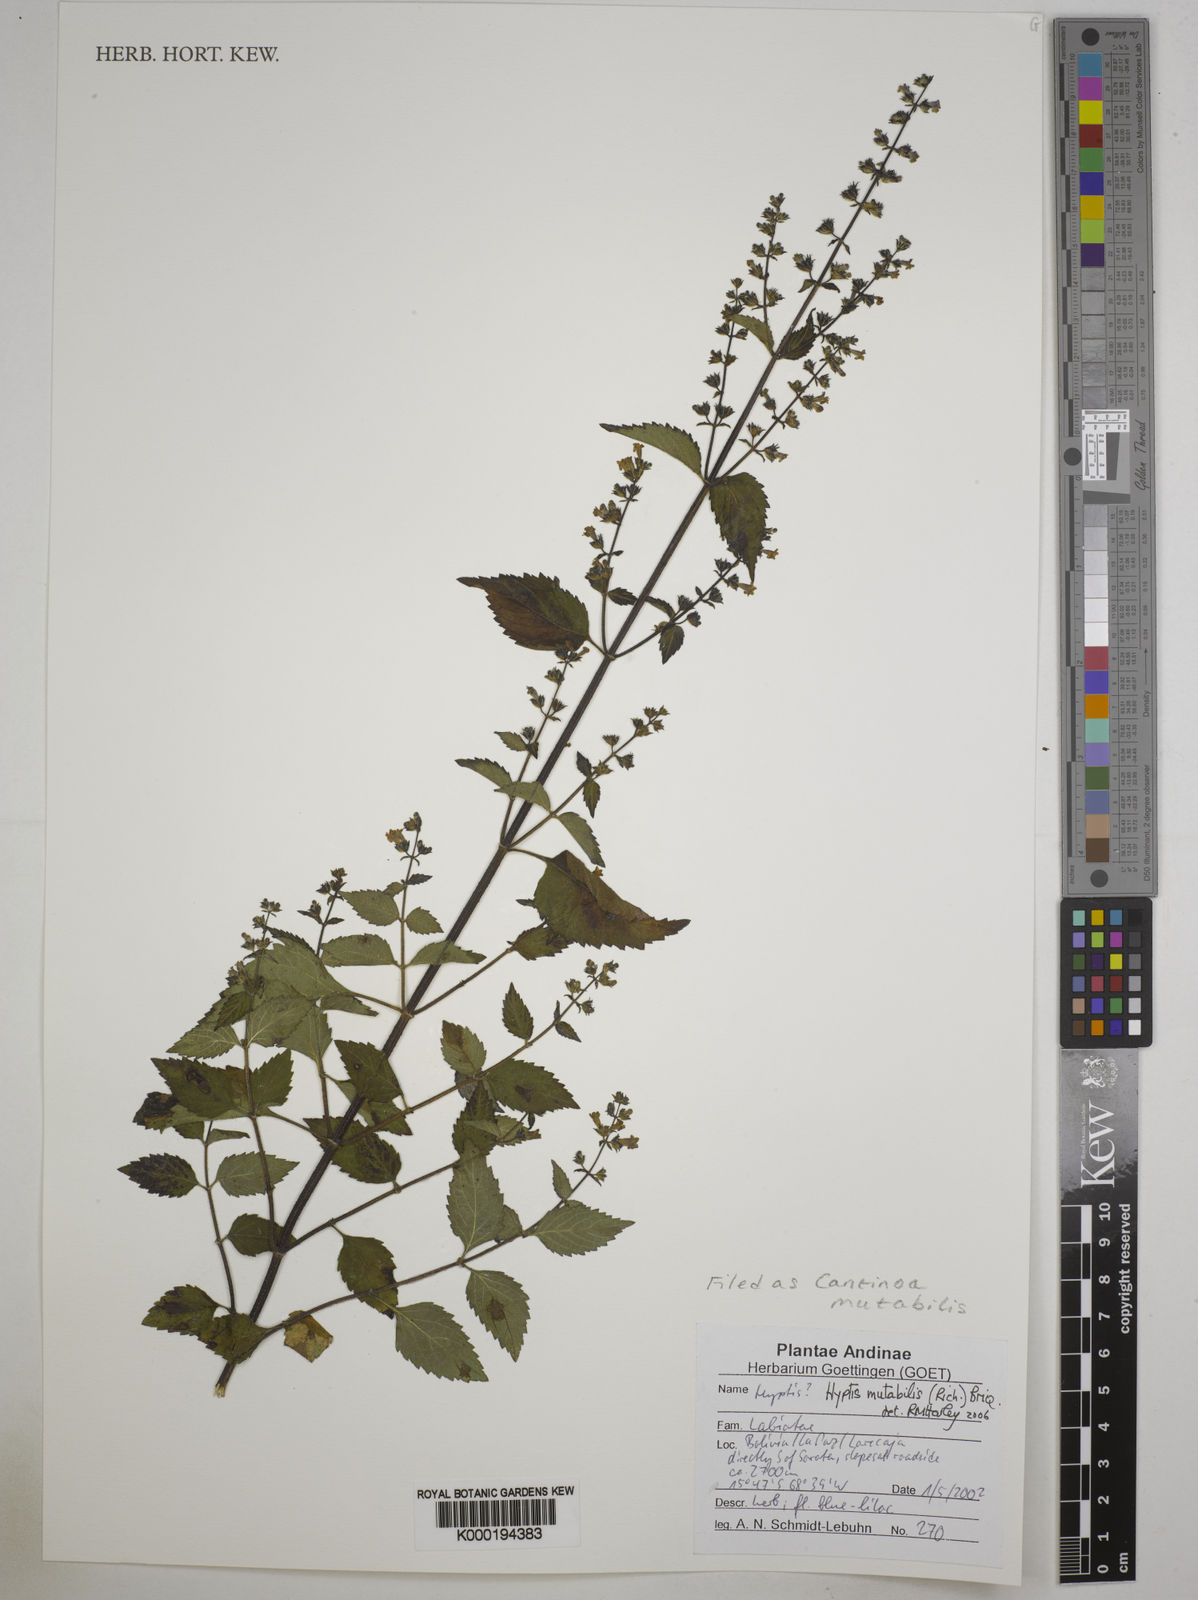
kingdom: Plantae
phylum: Tracheophyta
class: Magnoliopsida
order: Lamiales
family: Lamiaceae
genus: Cantinoa
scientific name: Cantinoa mutabilis
